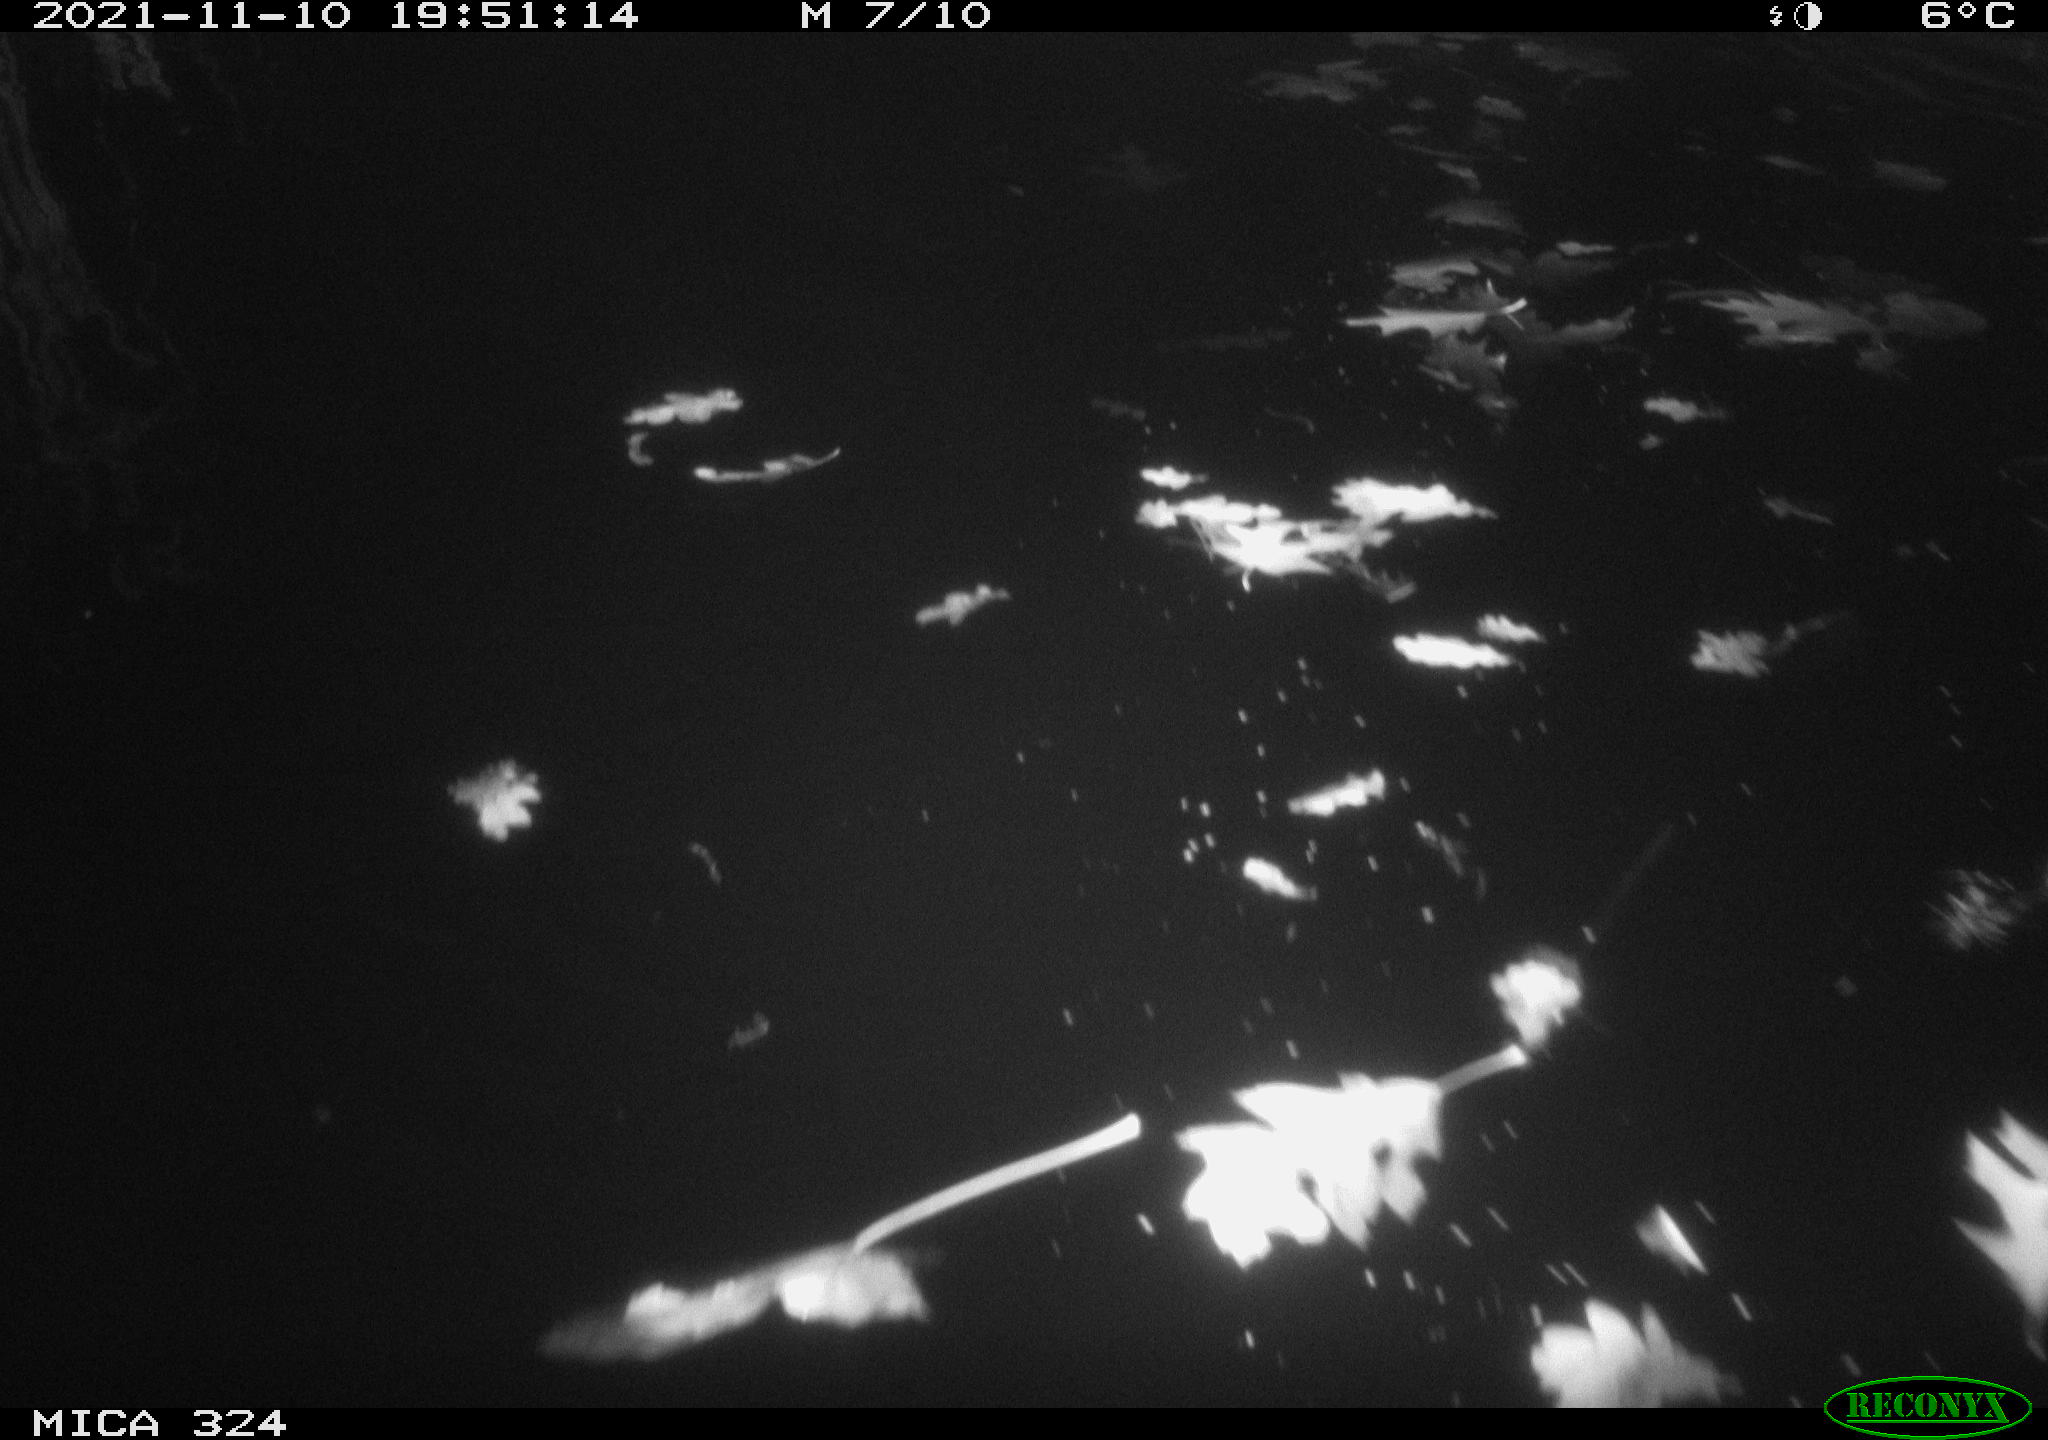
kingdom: Animalia
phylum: Chordata
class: Mammalia
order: Rodentia
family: Cricetidae
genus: Ondatra
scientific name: Ondatra zibethicus
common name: Muskrat
